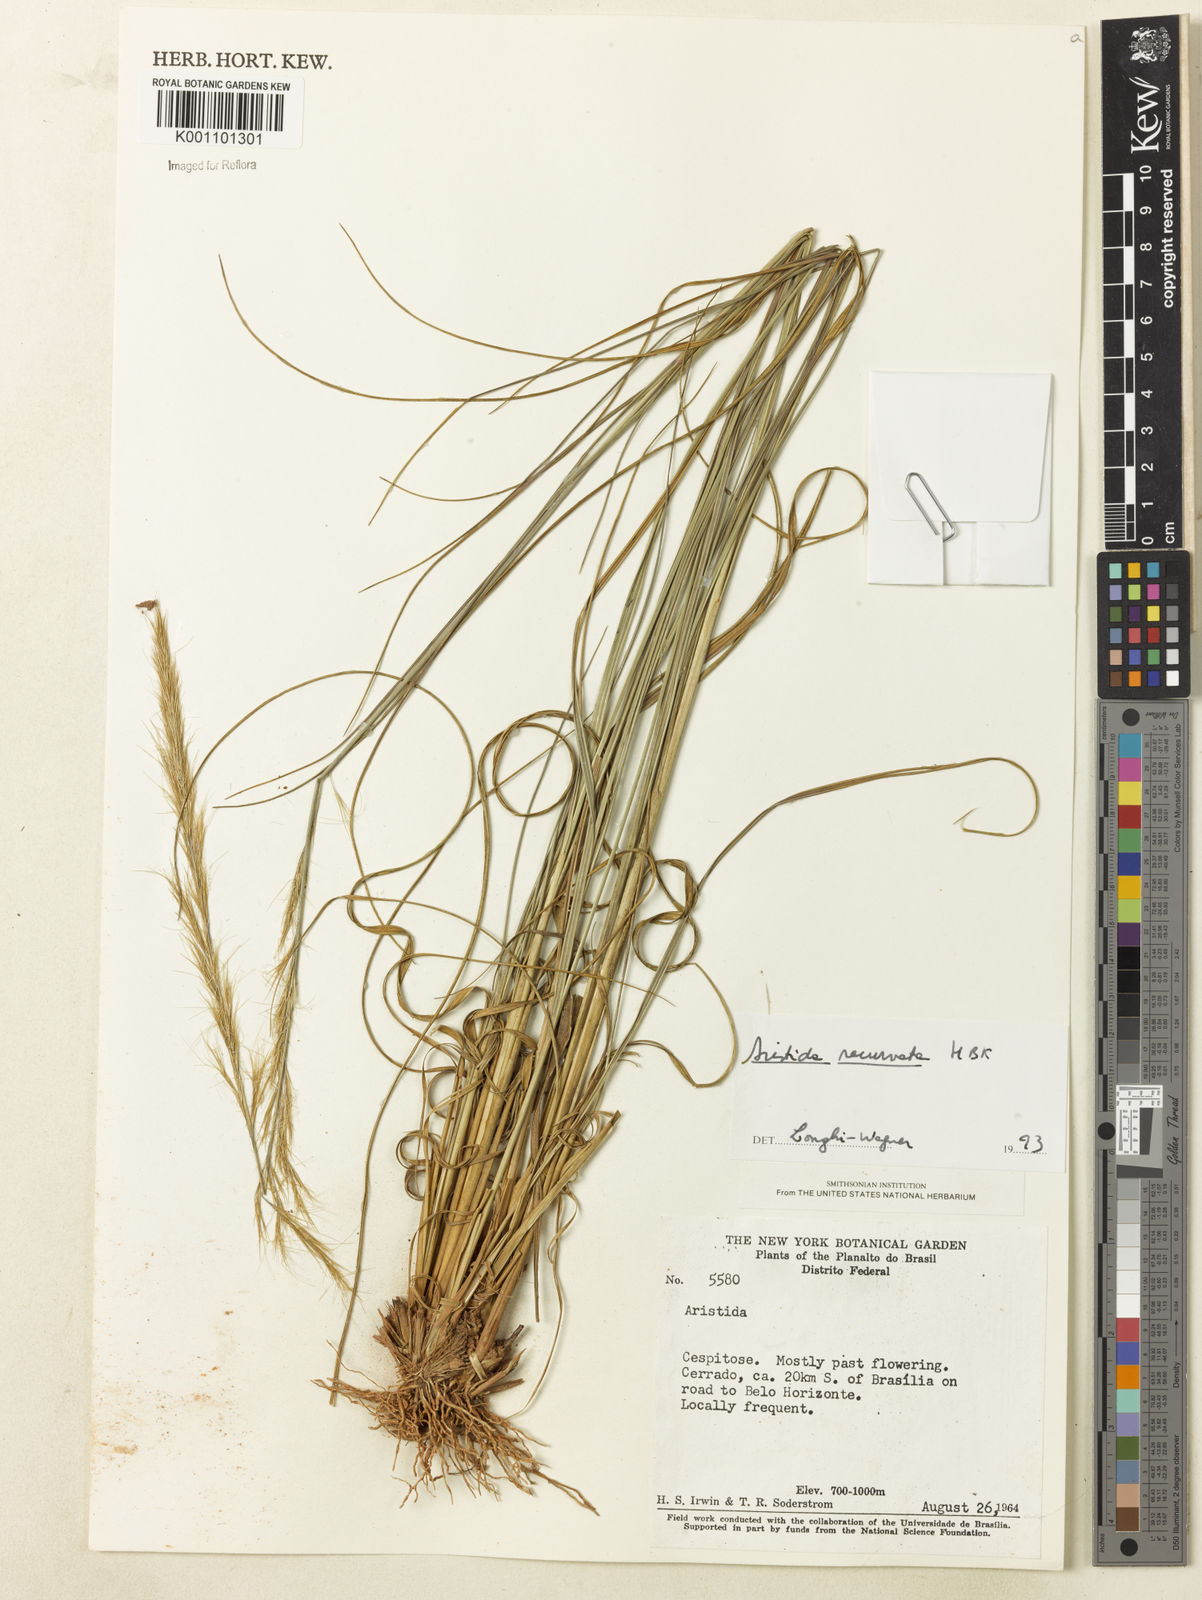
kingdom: Plantae
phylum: Tracheophyta
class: Liliopsida
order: Poales
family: Poaceae
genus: Aristida
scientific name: Aristida recurvata
